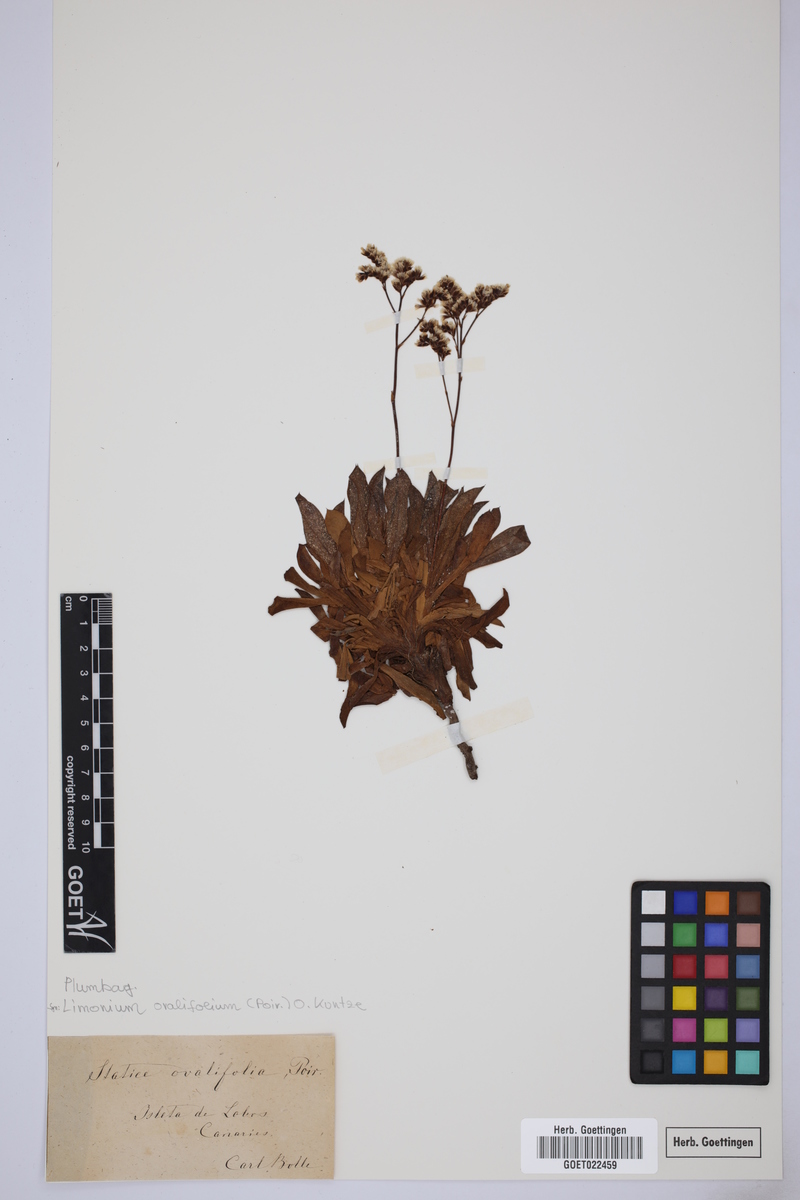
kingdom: Plantae
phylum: Tracheophyta
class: Magnoliopsida
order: Caryophyllales
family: Plumbaginaceae
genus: Limonium
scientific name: Limonium ovalifolium
